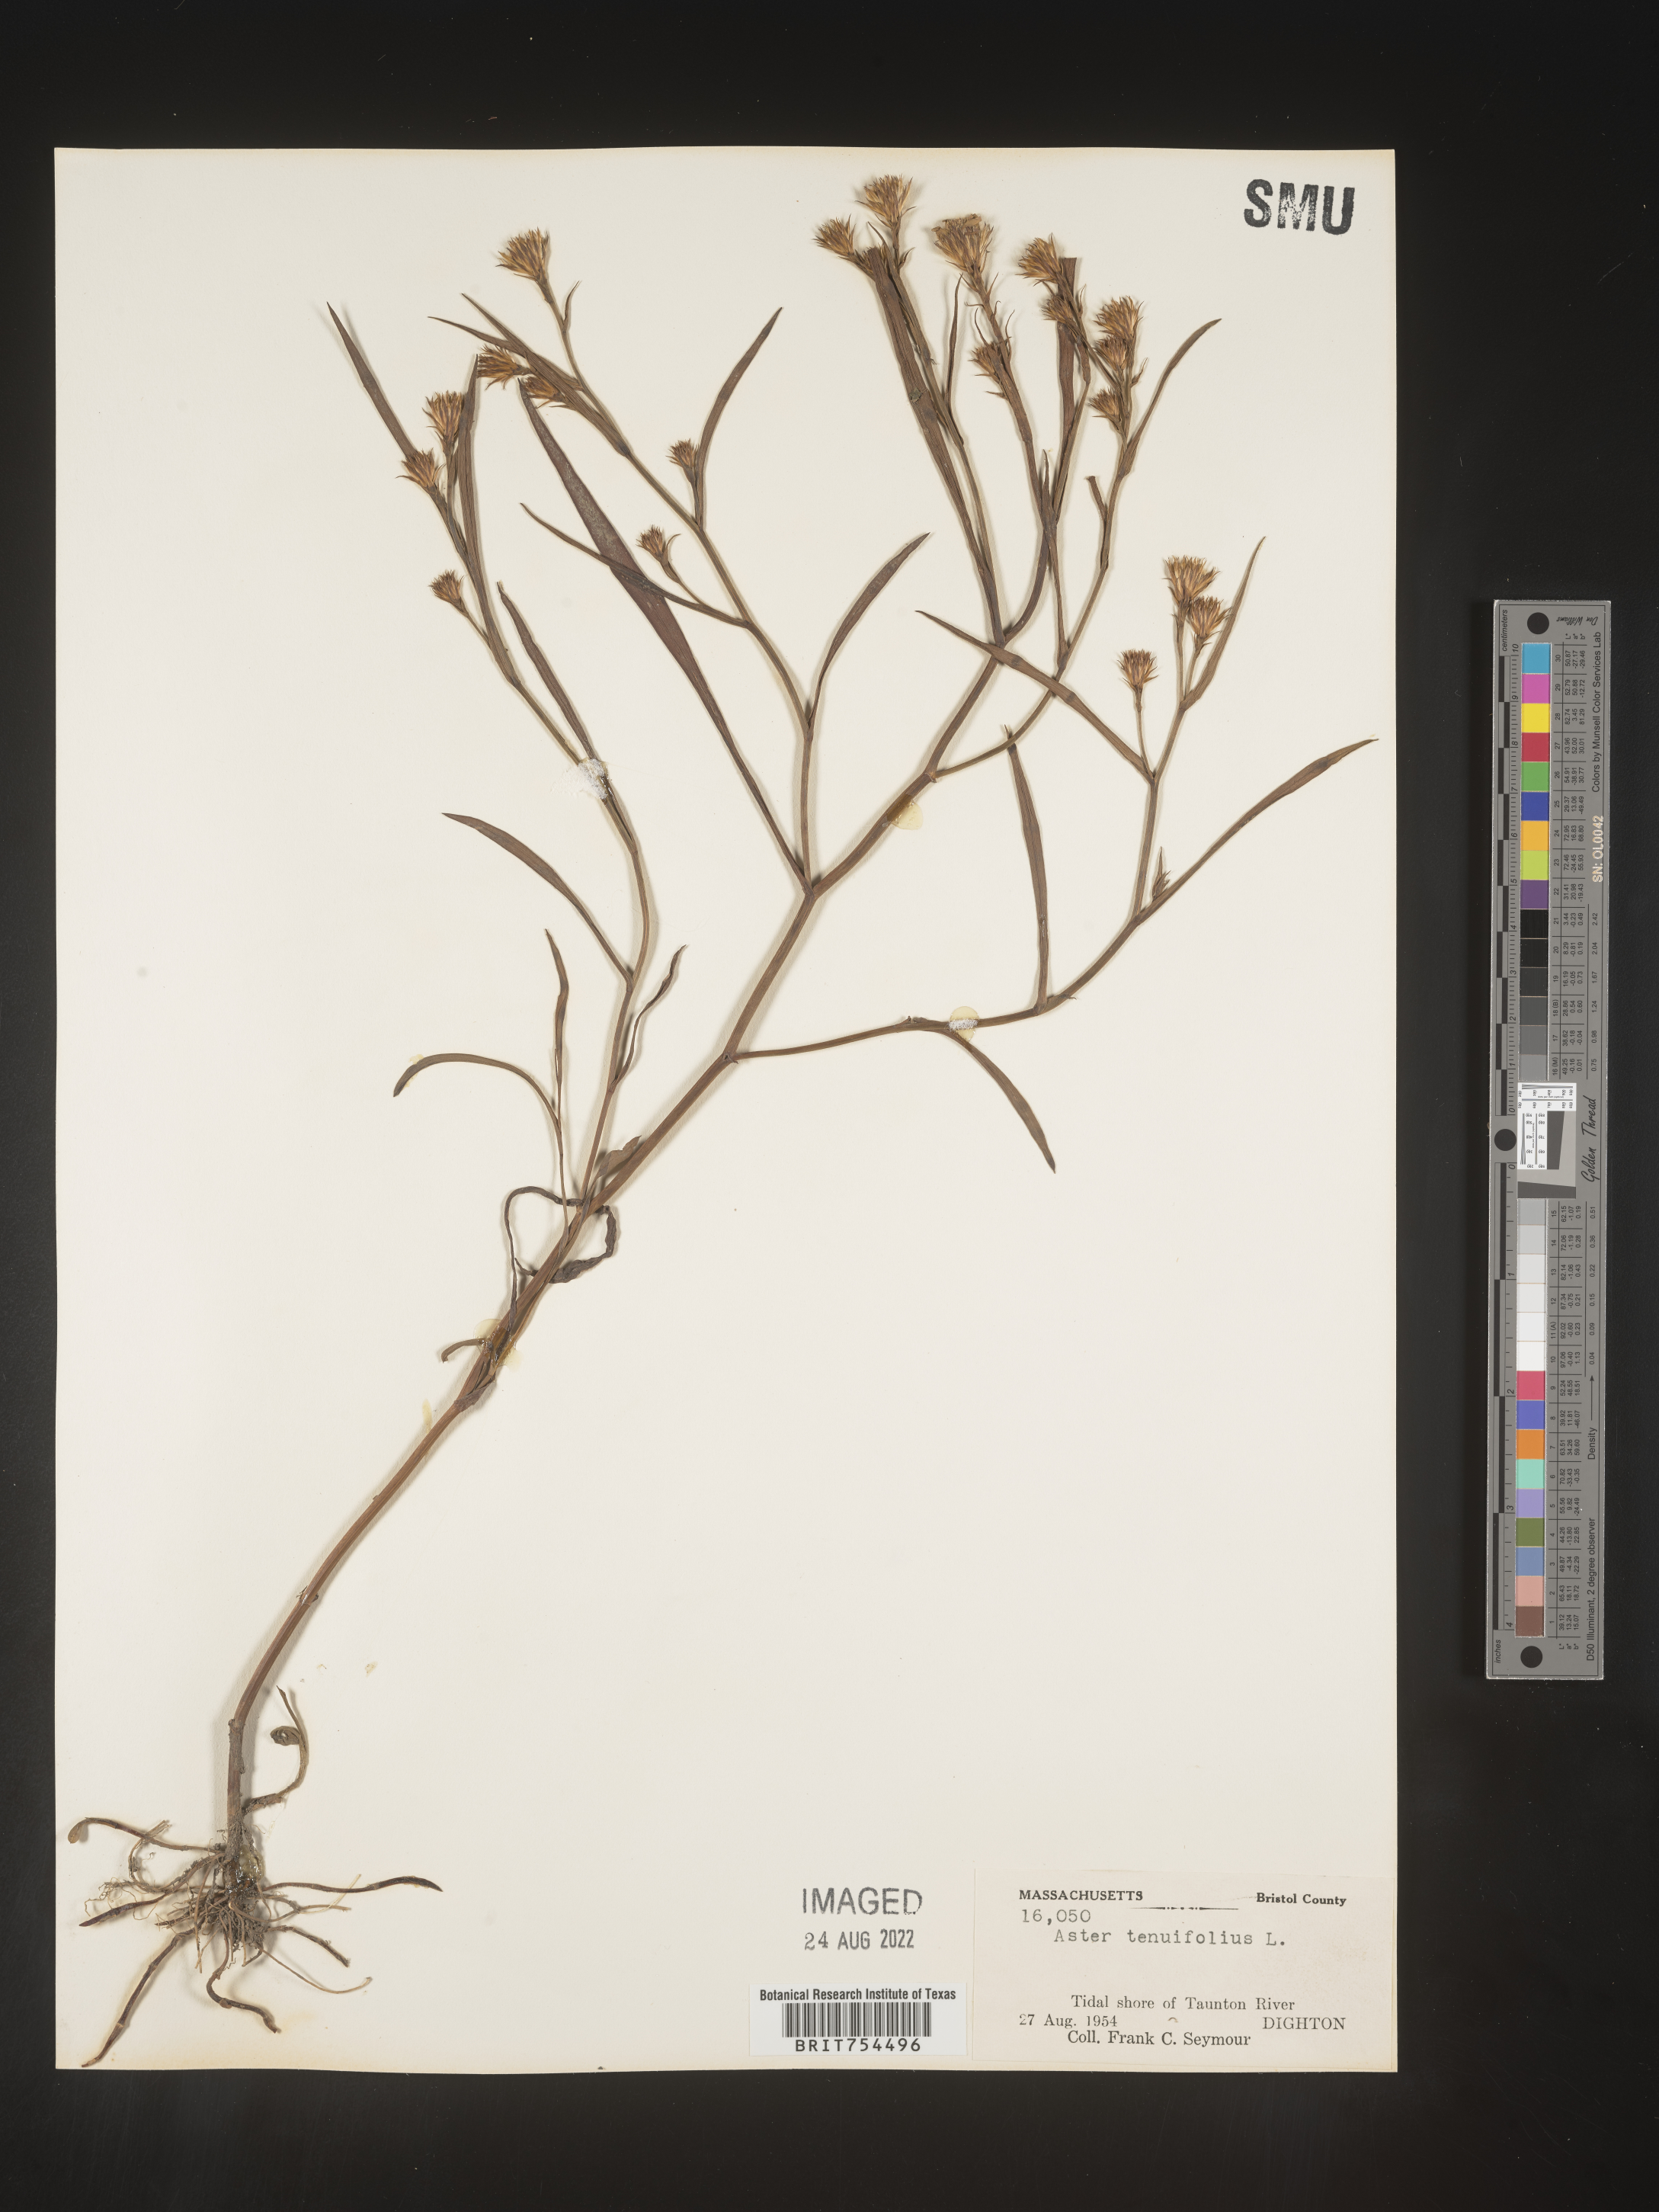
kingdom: Plantae
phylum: Tracheophyta
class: Magnoliopsida
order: Asterales
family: Asteraceae
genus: Symphyotrichum
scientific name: Symphyotrichum tenuifolium
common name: Perennial salt-marsh aster
